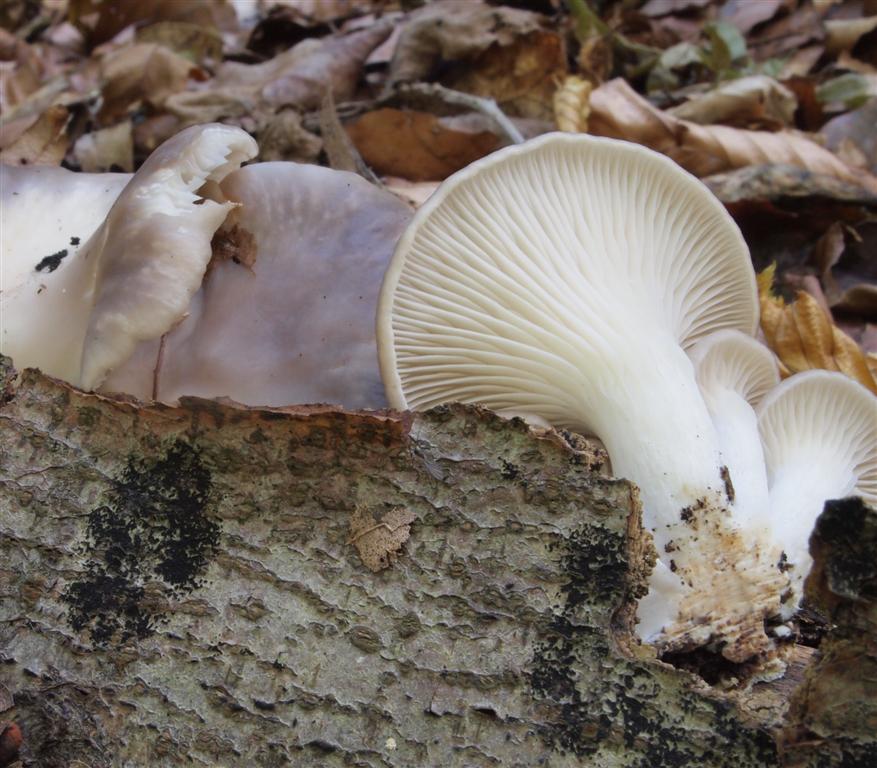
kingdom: Fungi
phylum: Basidiomycota
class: Agaricomycetes
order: Agaricales
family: Pleurotaceae
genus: Pleurotus
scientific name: Pleurotus ostreatus
